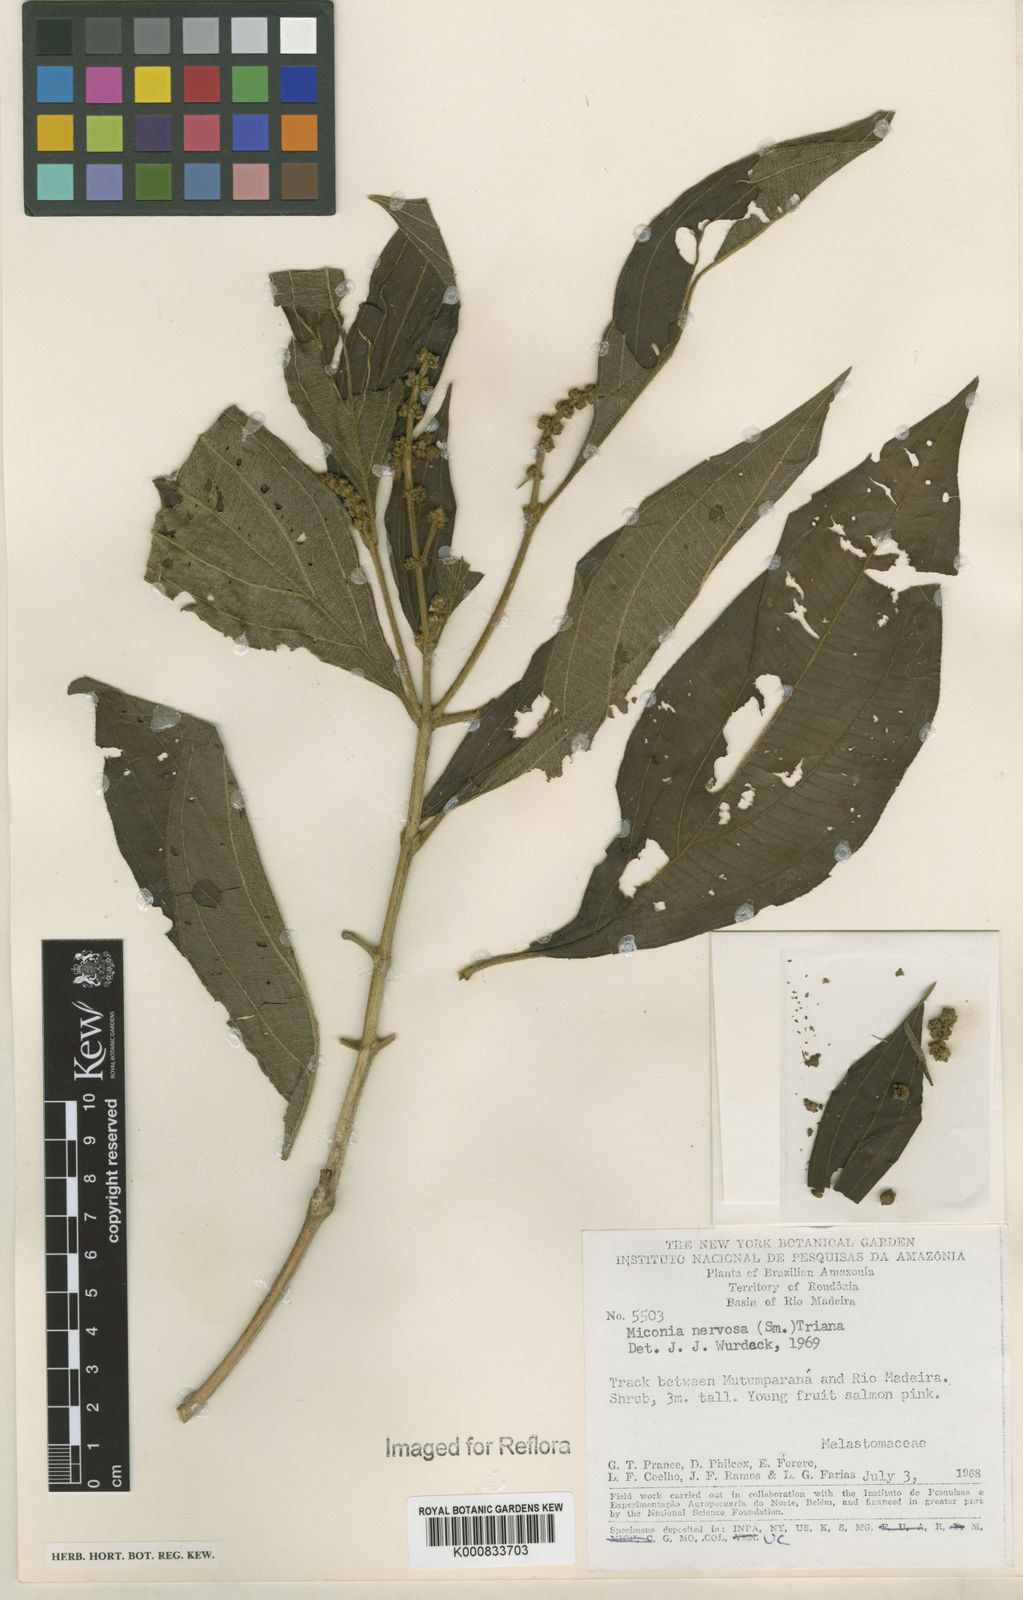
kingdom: Plantae
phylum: Tracheophyta
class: Magnoliopsida
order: Myrtales
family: Melastomataceae
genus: Miconia
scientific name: Miconia nervosa
